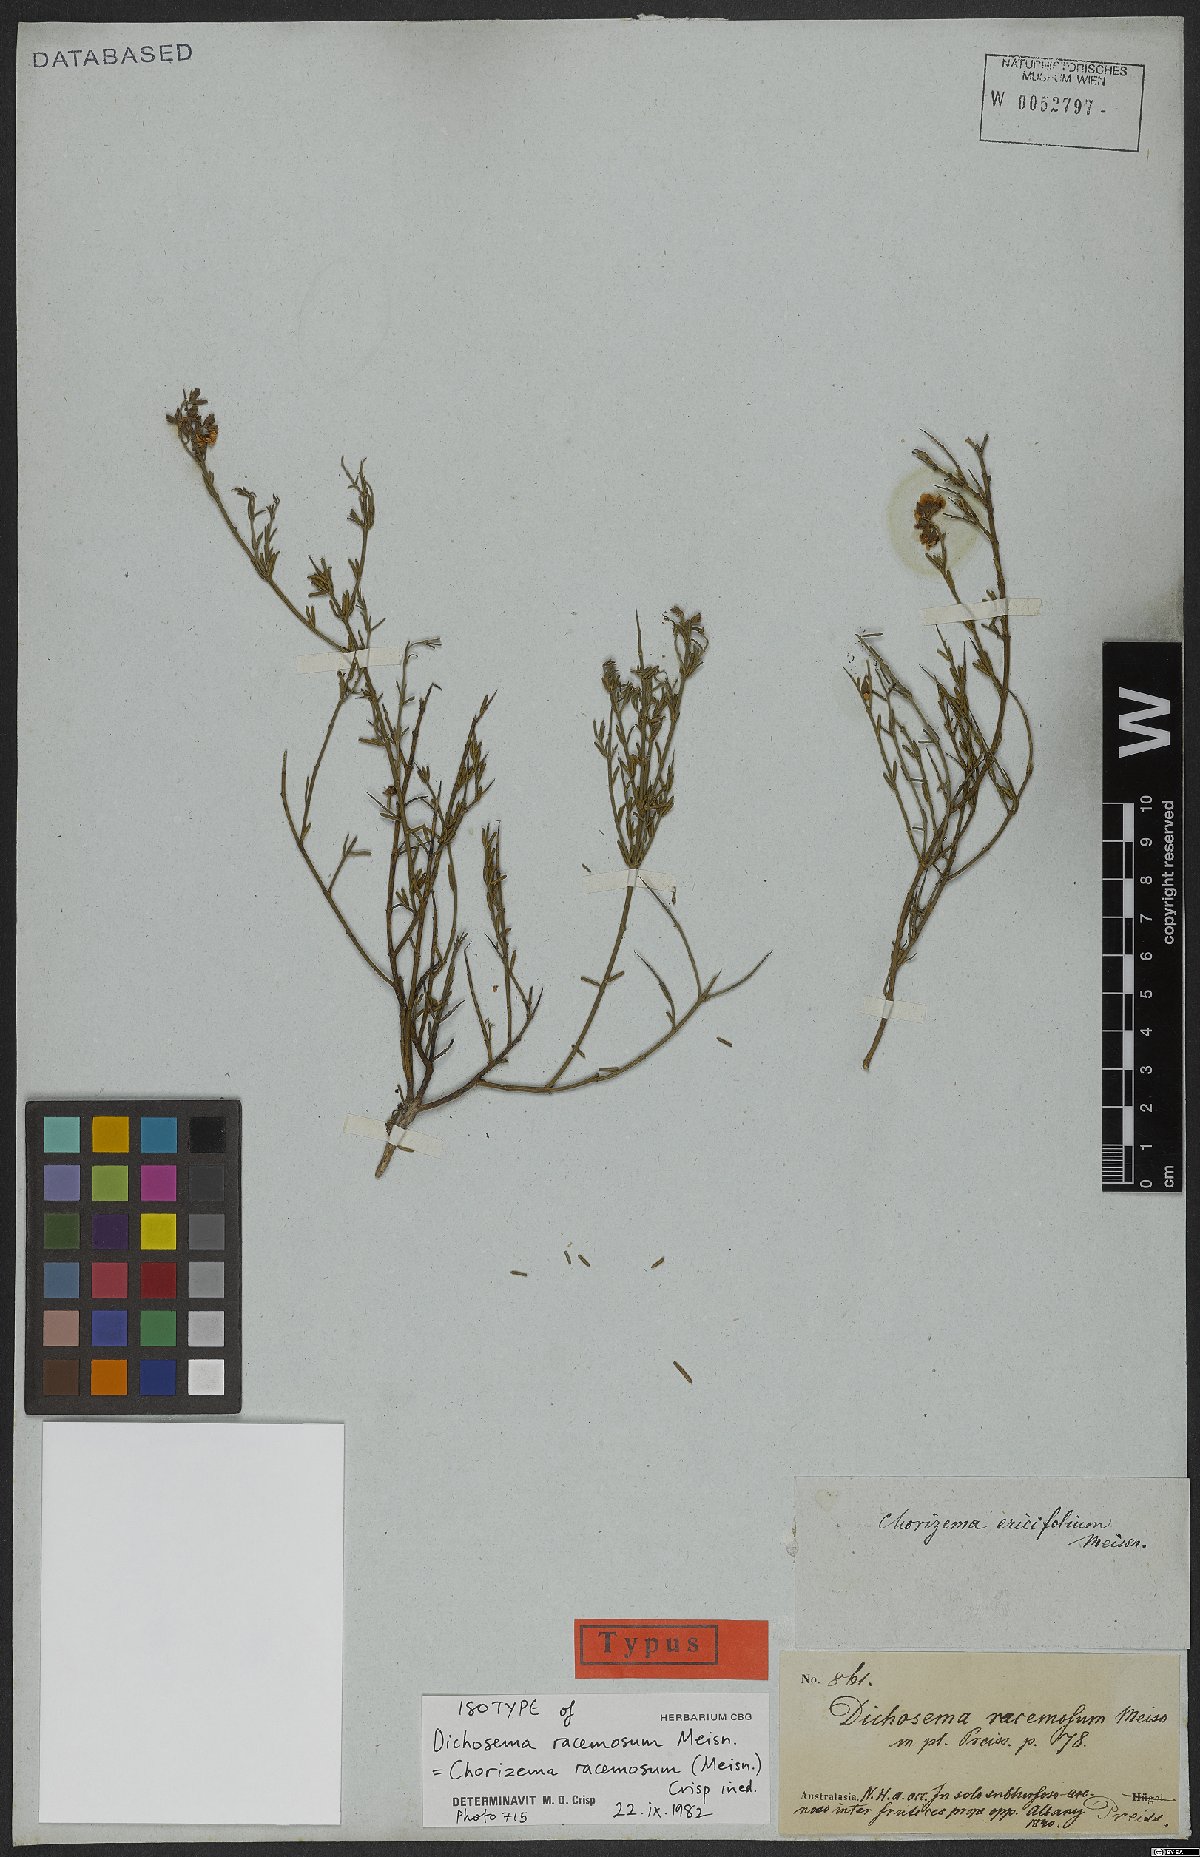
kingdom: Plantae
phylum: Tracheophyta
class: Magnoliopsida
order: Fabales
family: Fabaceae
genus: Chorizema
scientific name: Chorizema racemosum
